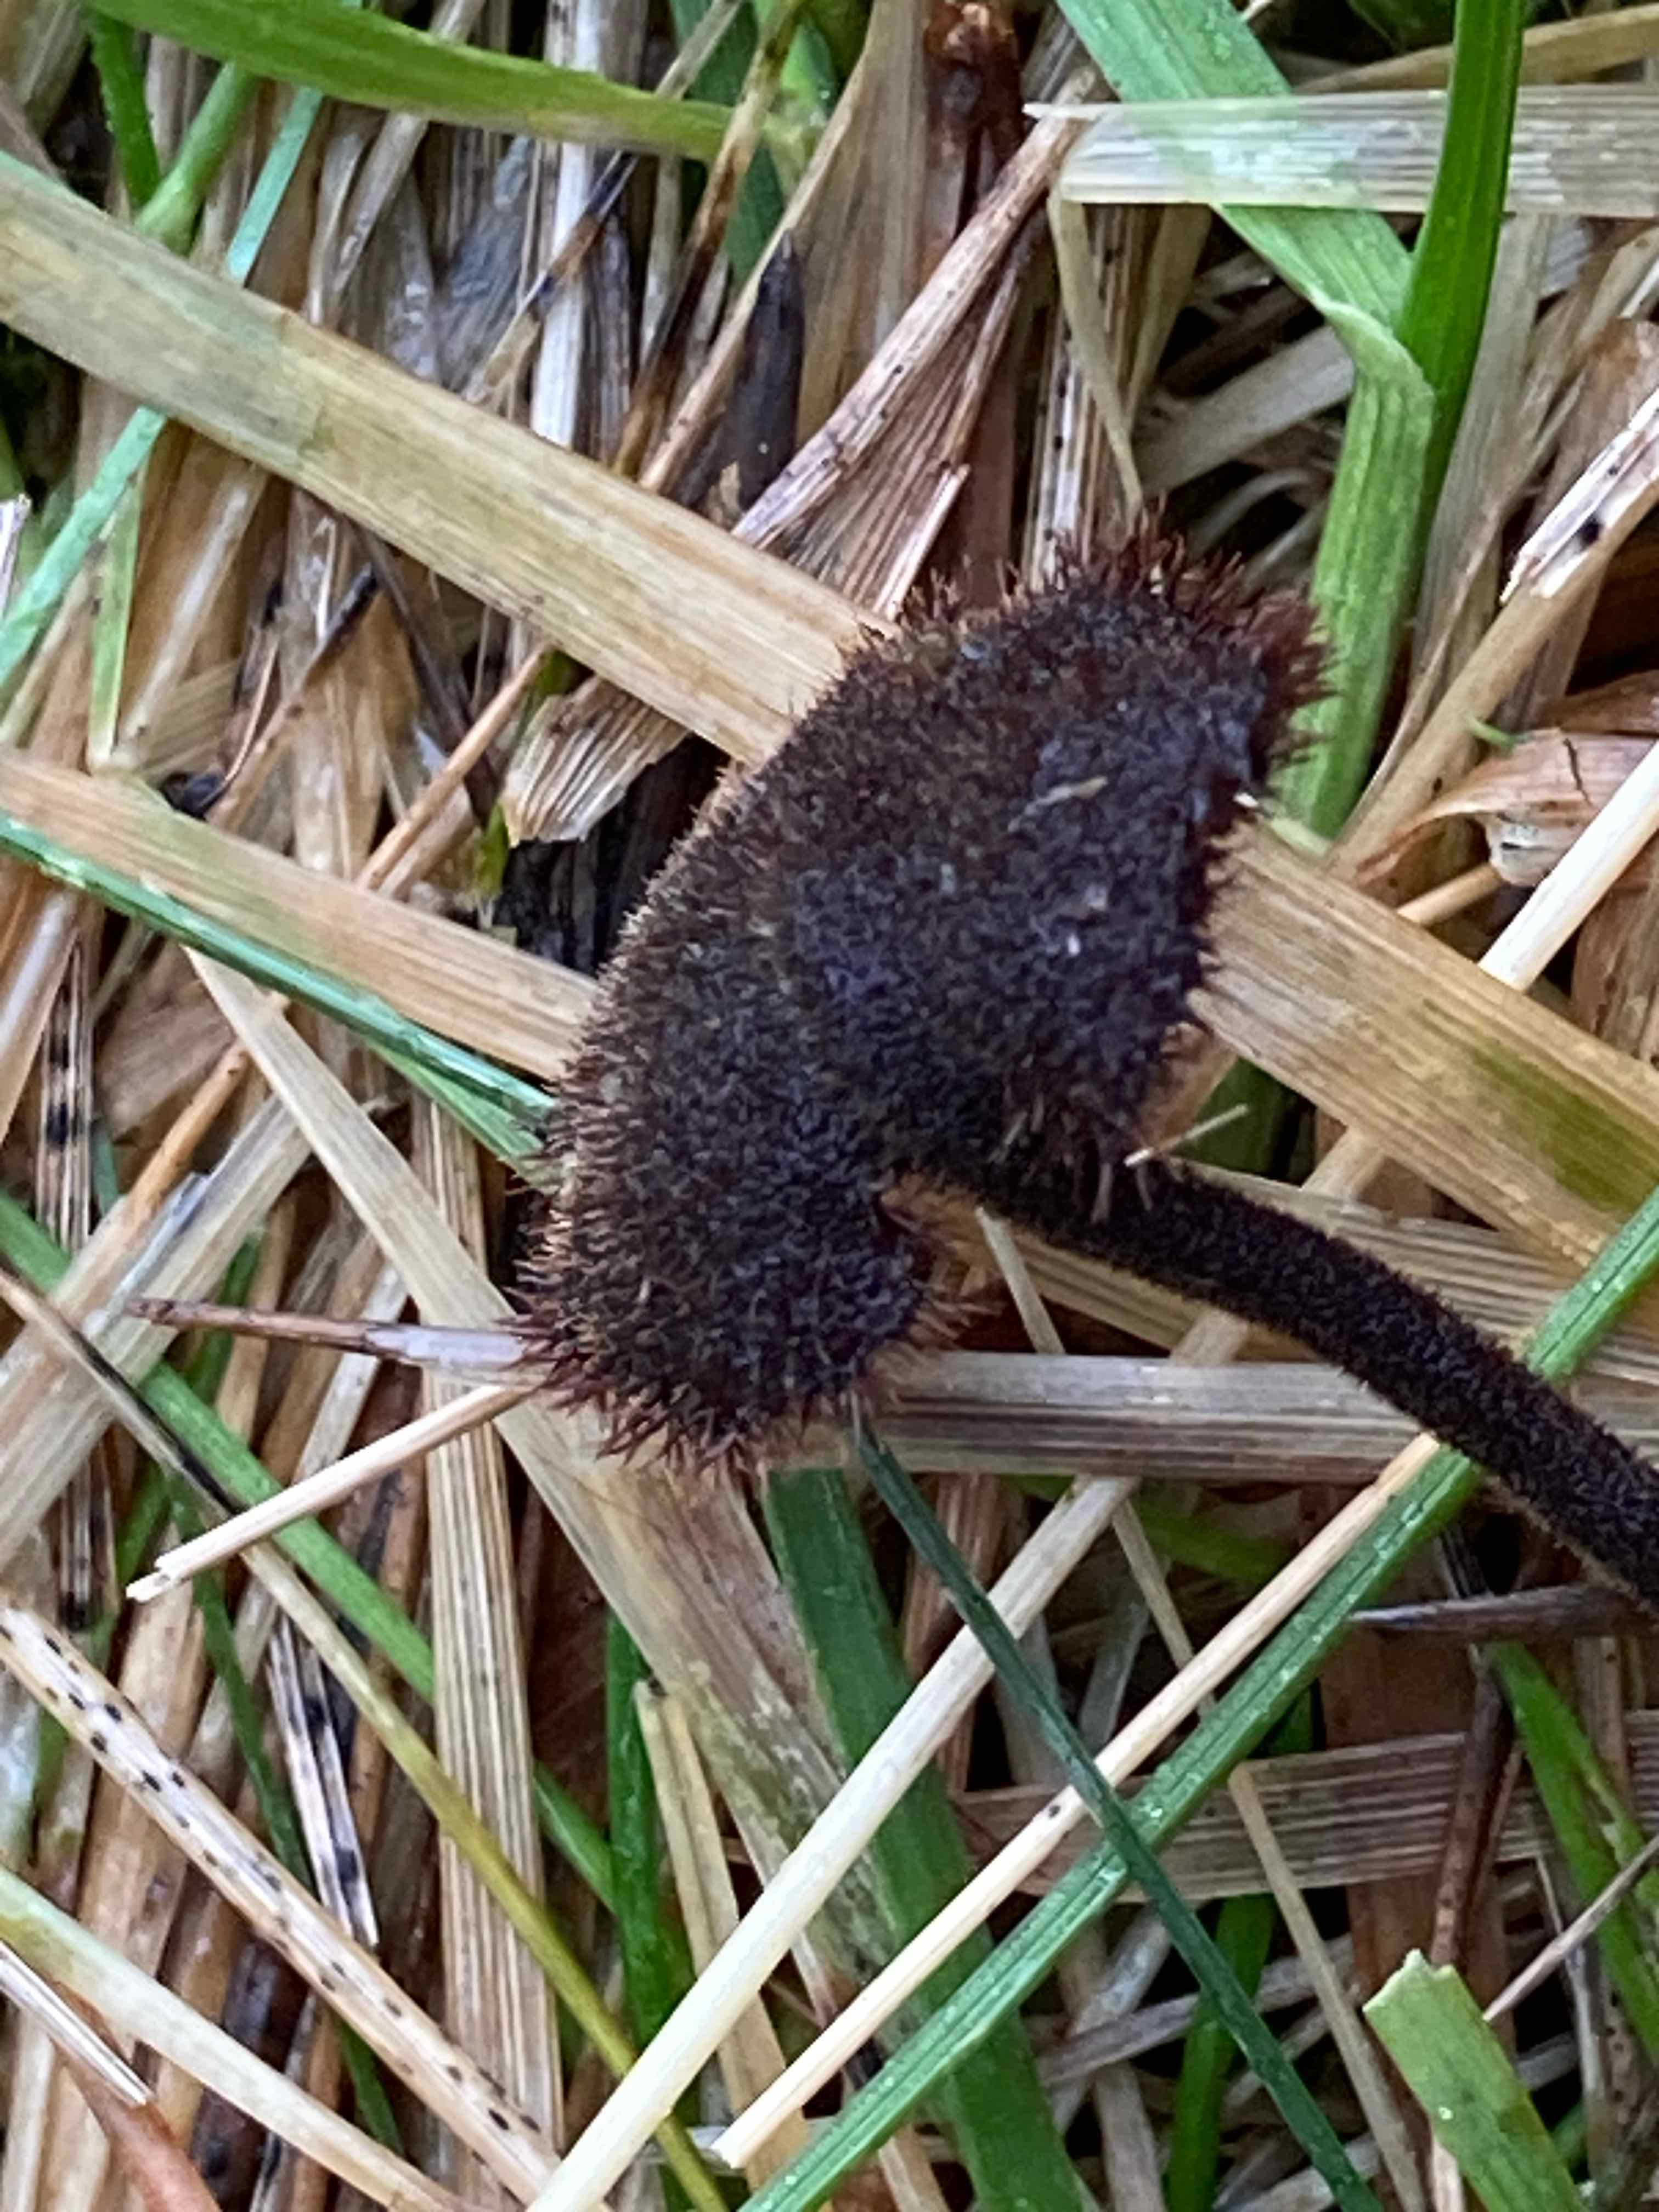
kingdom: Fungi
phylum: Basidiomycota
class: Agaricomycetes
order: Russulales
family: Auriscalpiaceae
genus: Auriscalpium
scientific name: Auriscalpium vulgare
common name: koglepigsvamp
